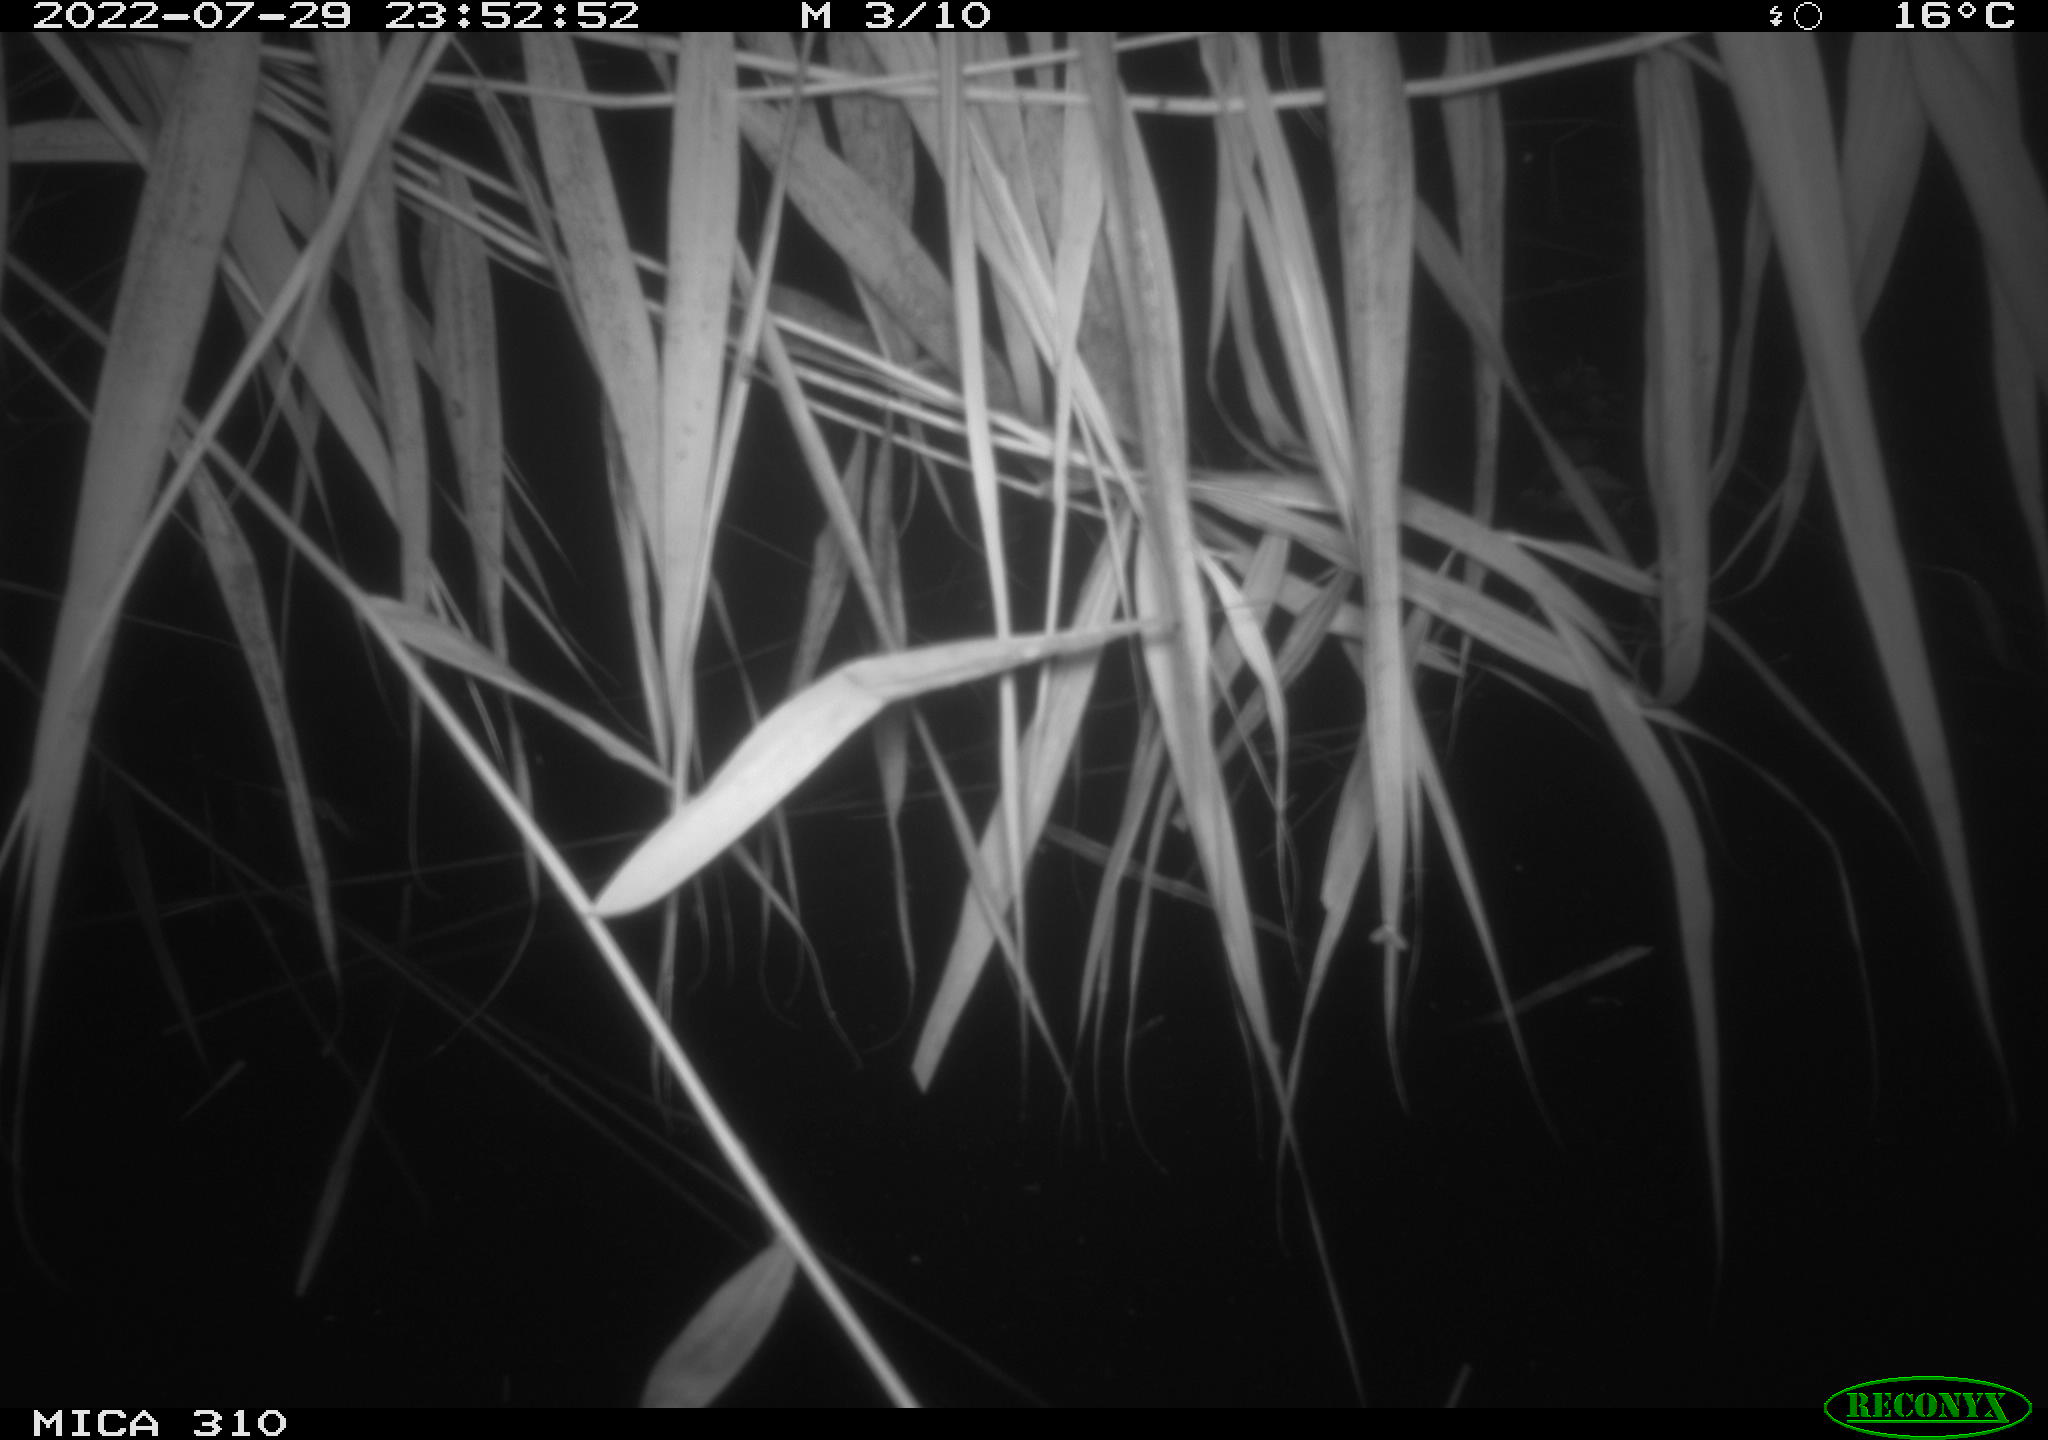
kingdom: Animalia
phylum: Chordata
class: Aves
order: Anseriformes
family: Anatidae
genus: Anas
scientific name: Anas platyrhynchos
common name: Mallard
